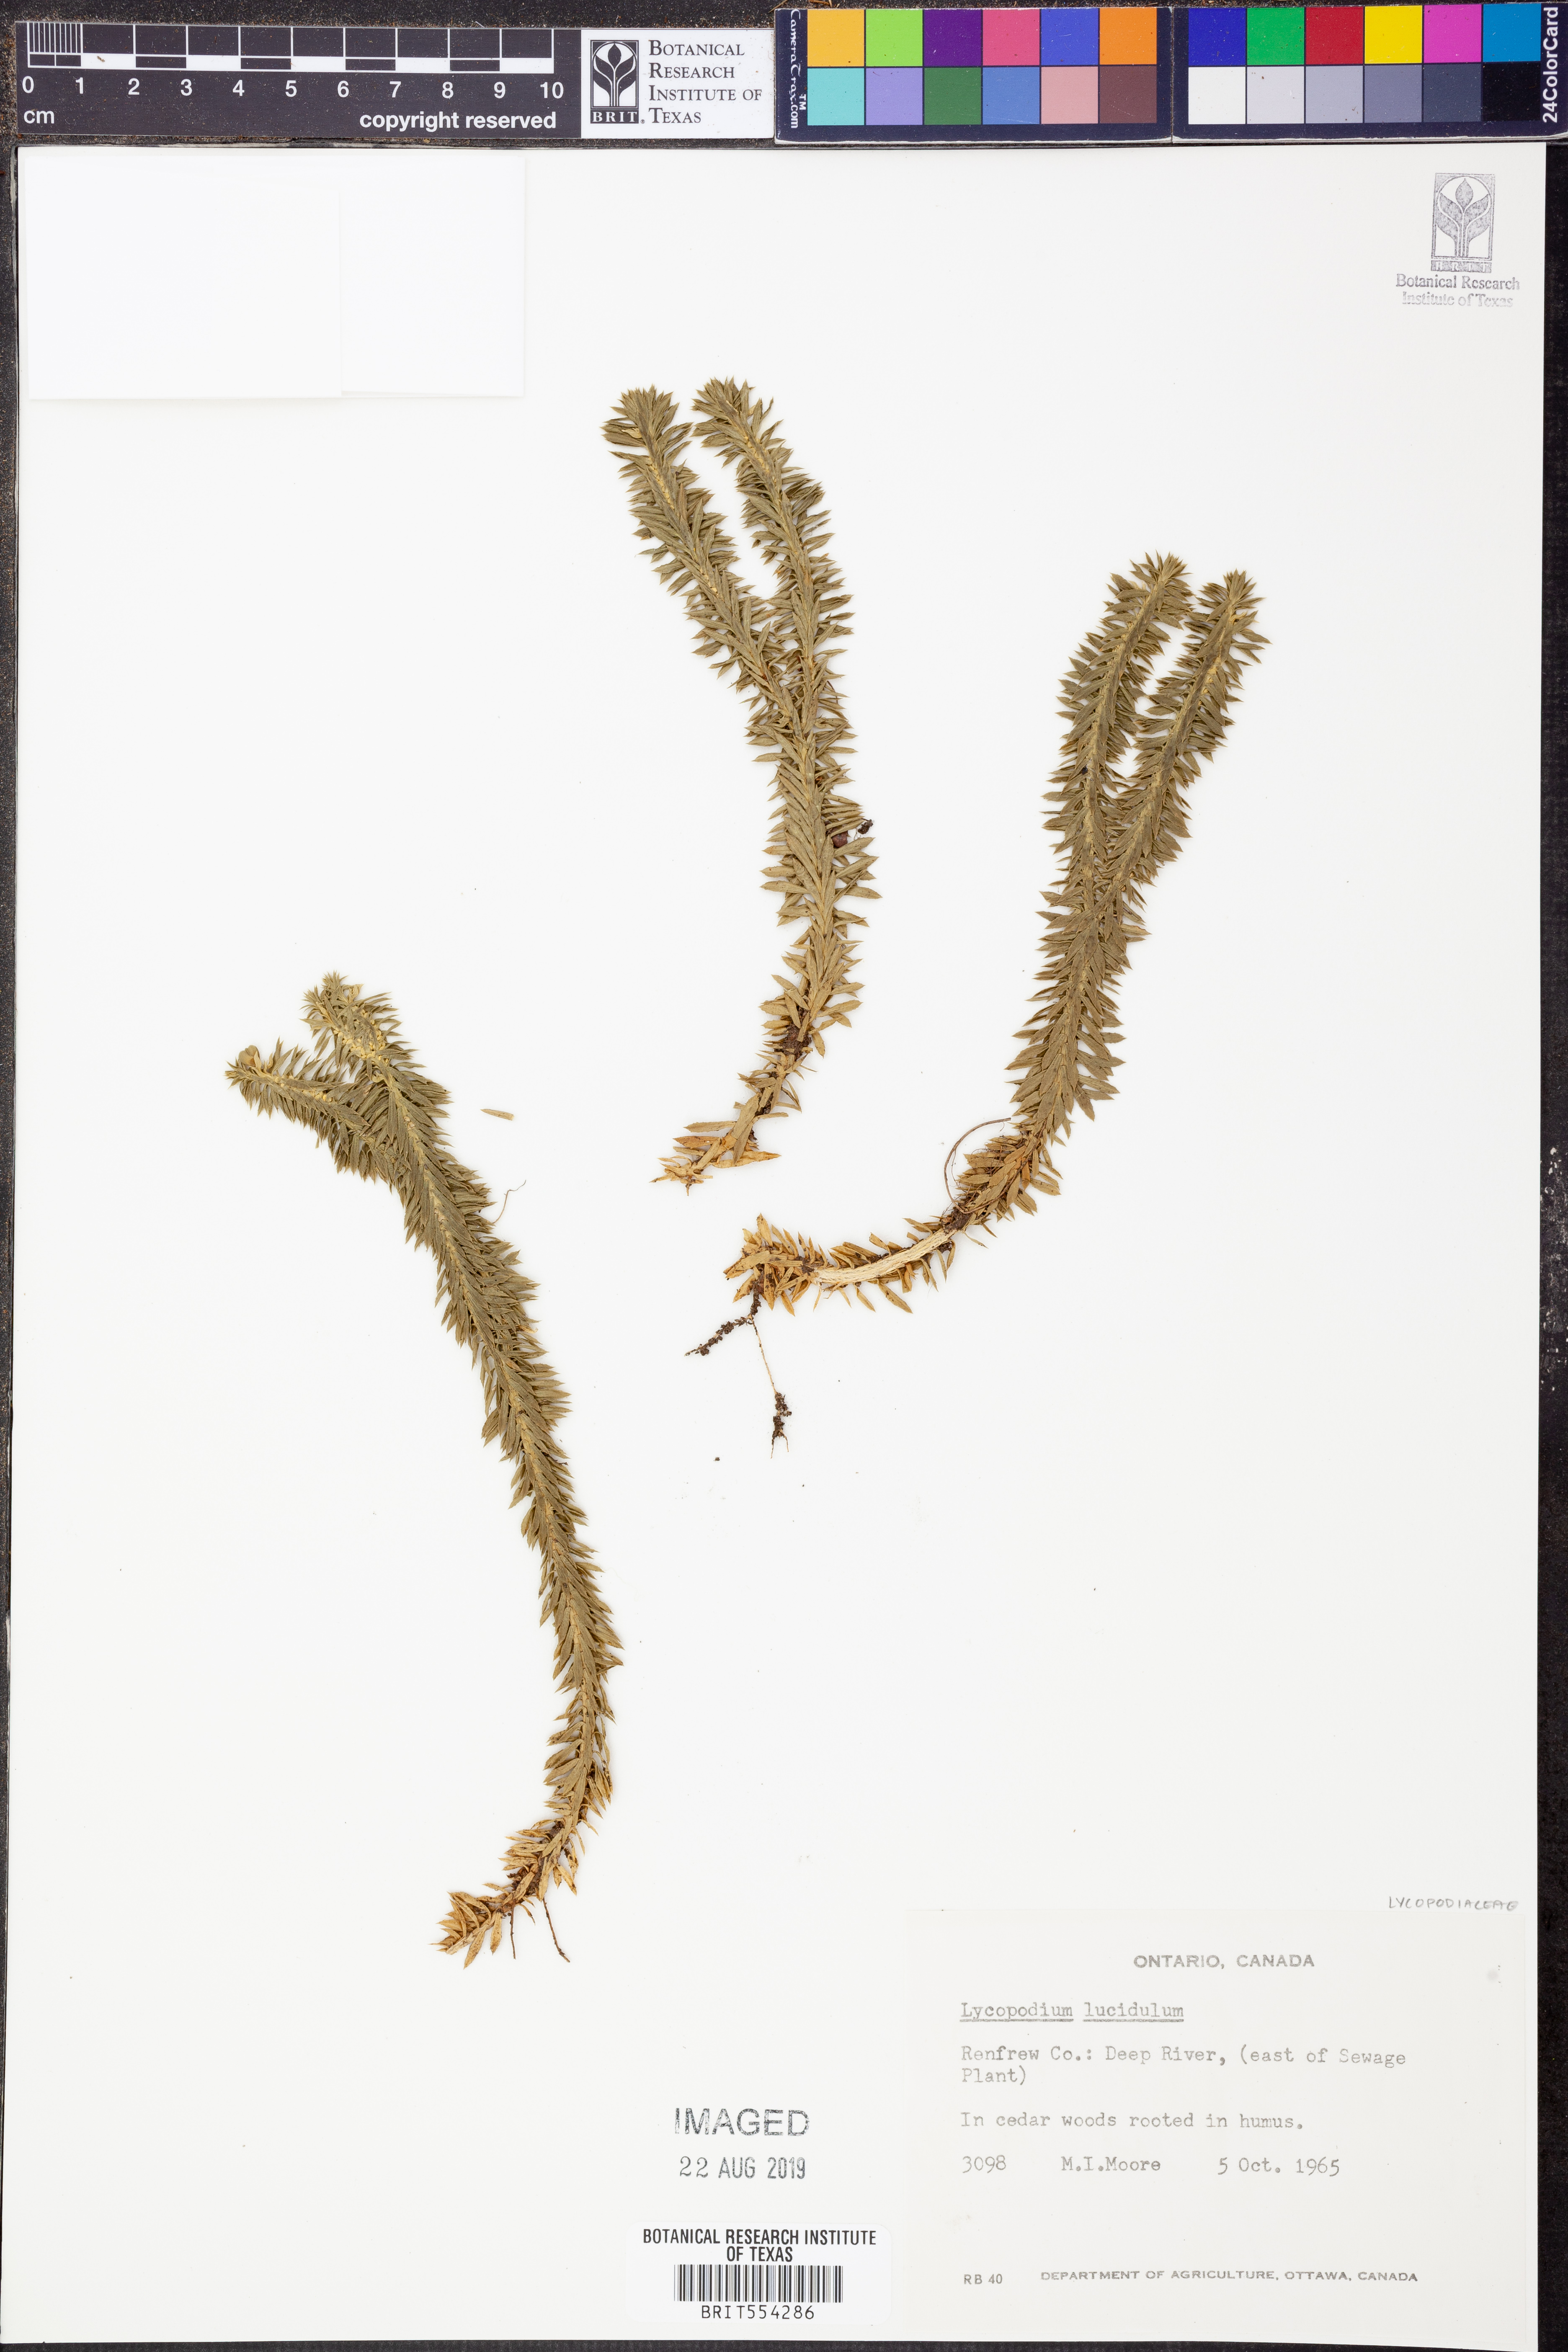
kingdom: Plantae
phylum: Tracheophyta
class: Lycopodiopsida
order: Lycopodiales
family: Lycopodiaceae
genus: Huperzia
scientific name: Huperzia lucidula
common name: Shining clubmoss
